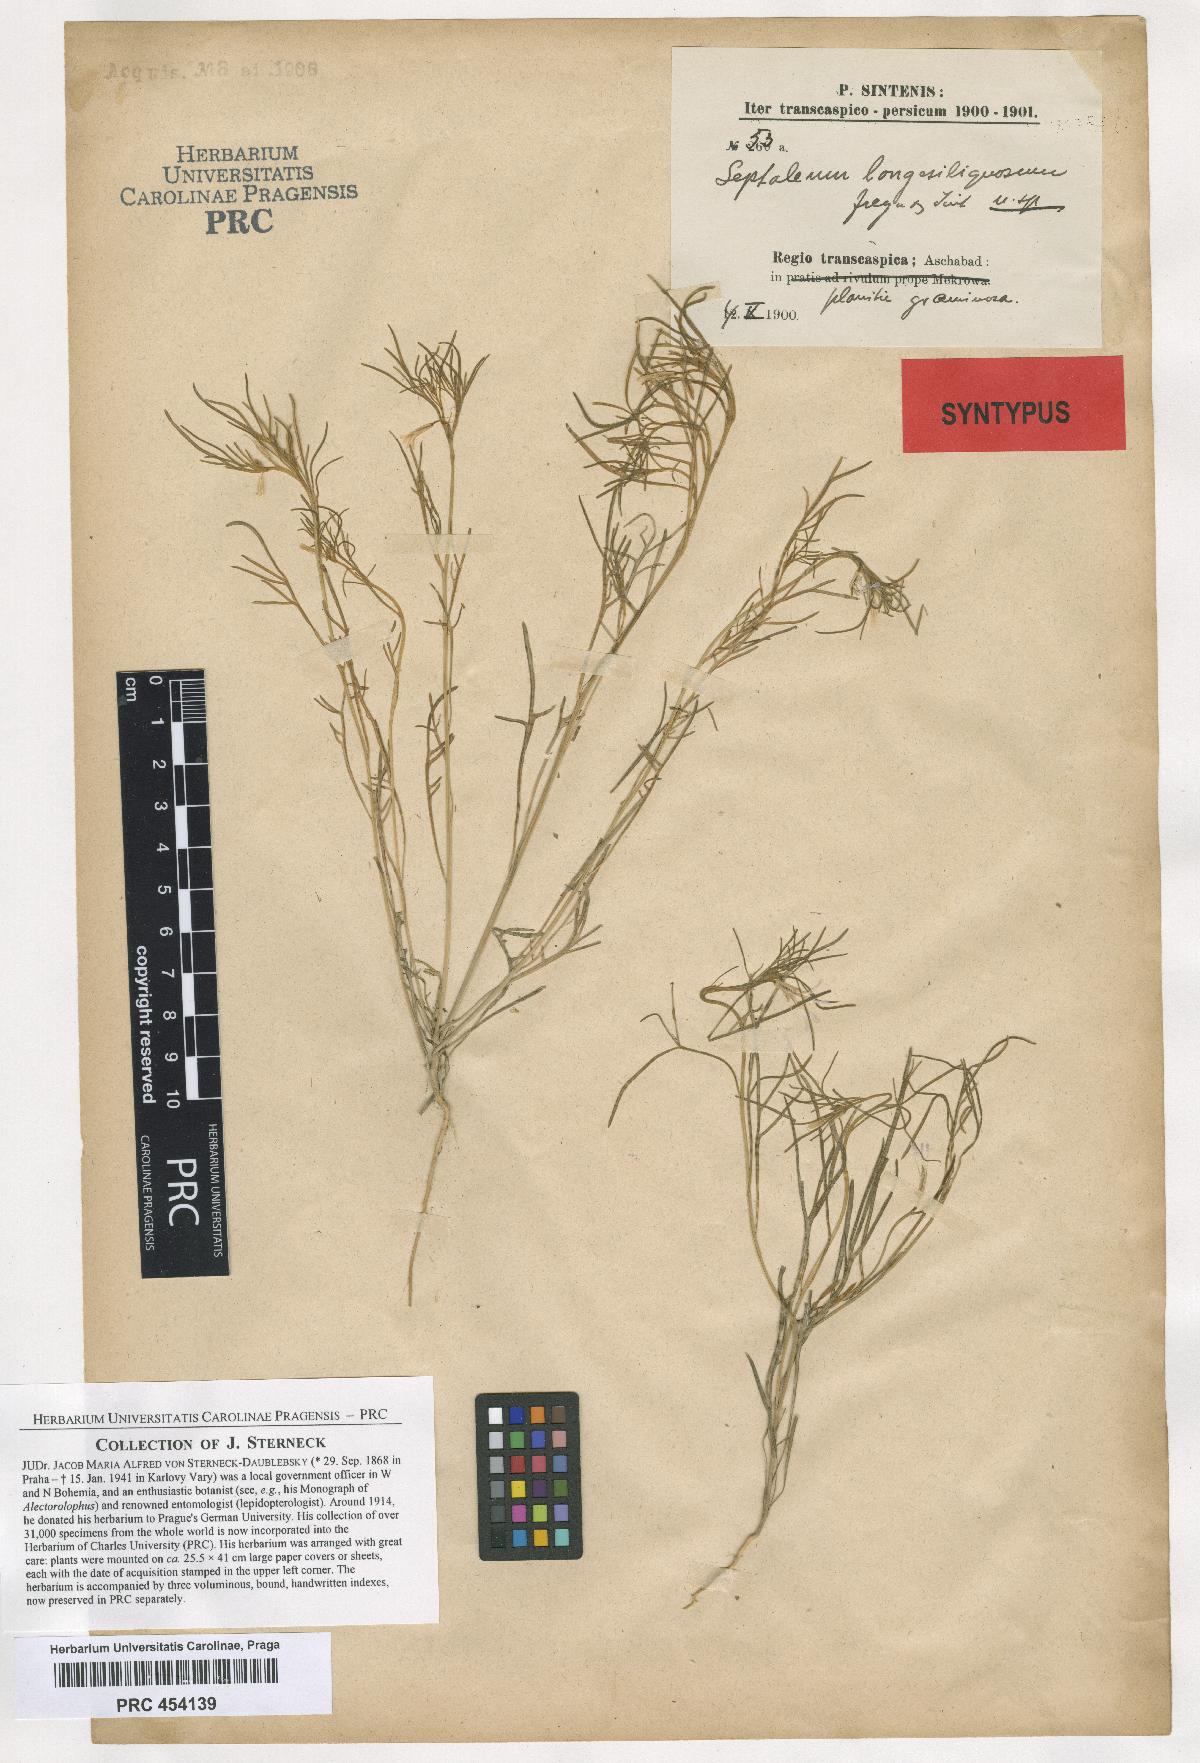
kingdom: Plantae
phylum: Tracheophyta
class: Magnoliopsida
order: Brassicales
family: Brassicaceae
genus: Leptaleum
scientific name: Leptaleum filifolium
